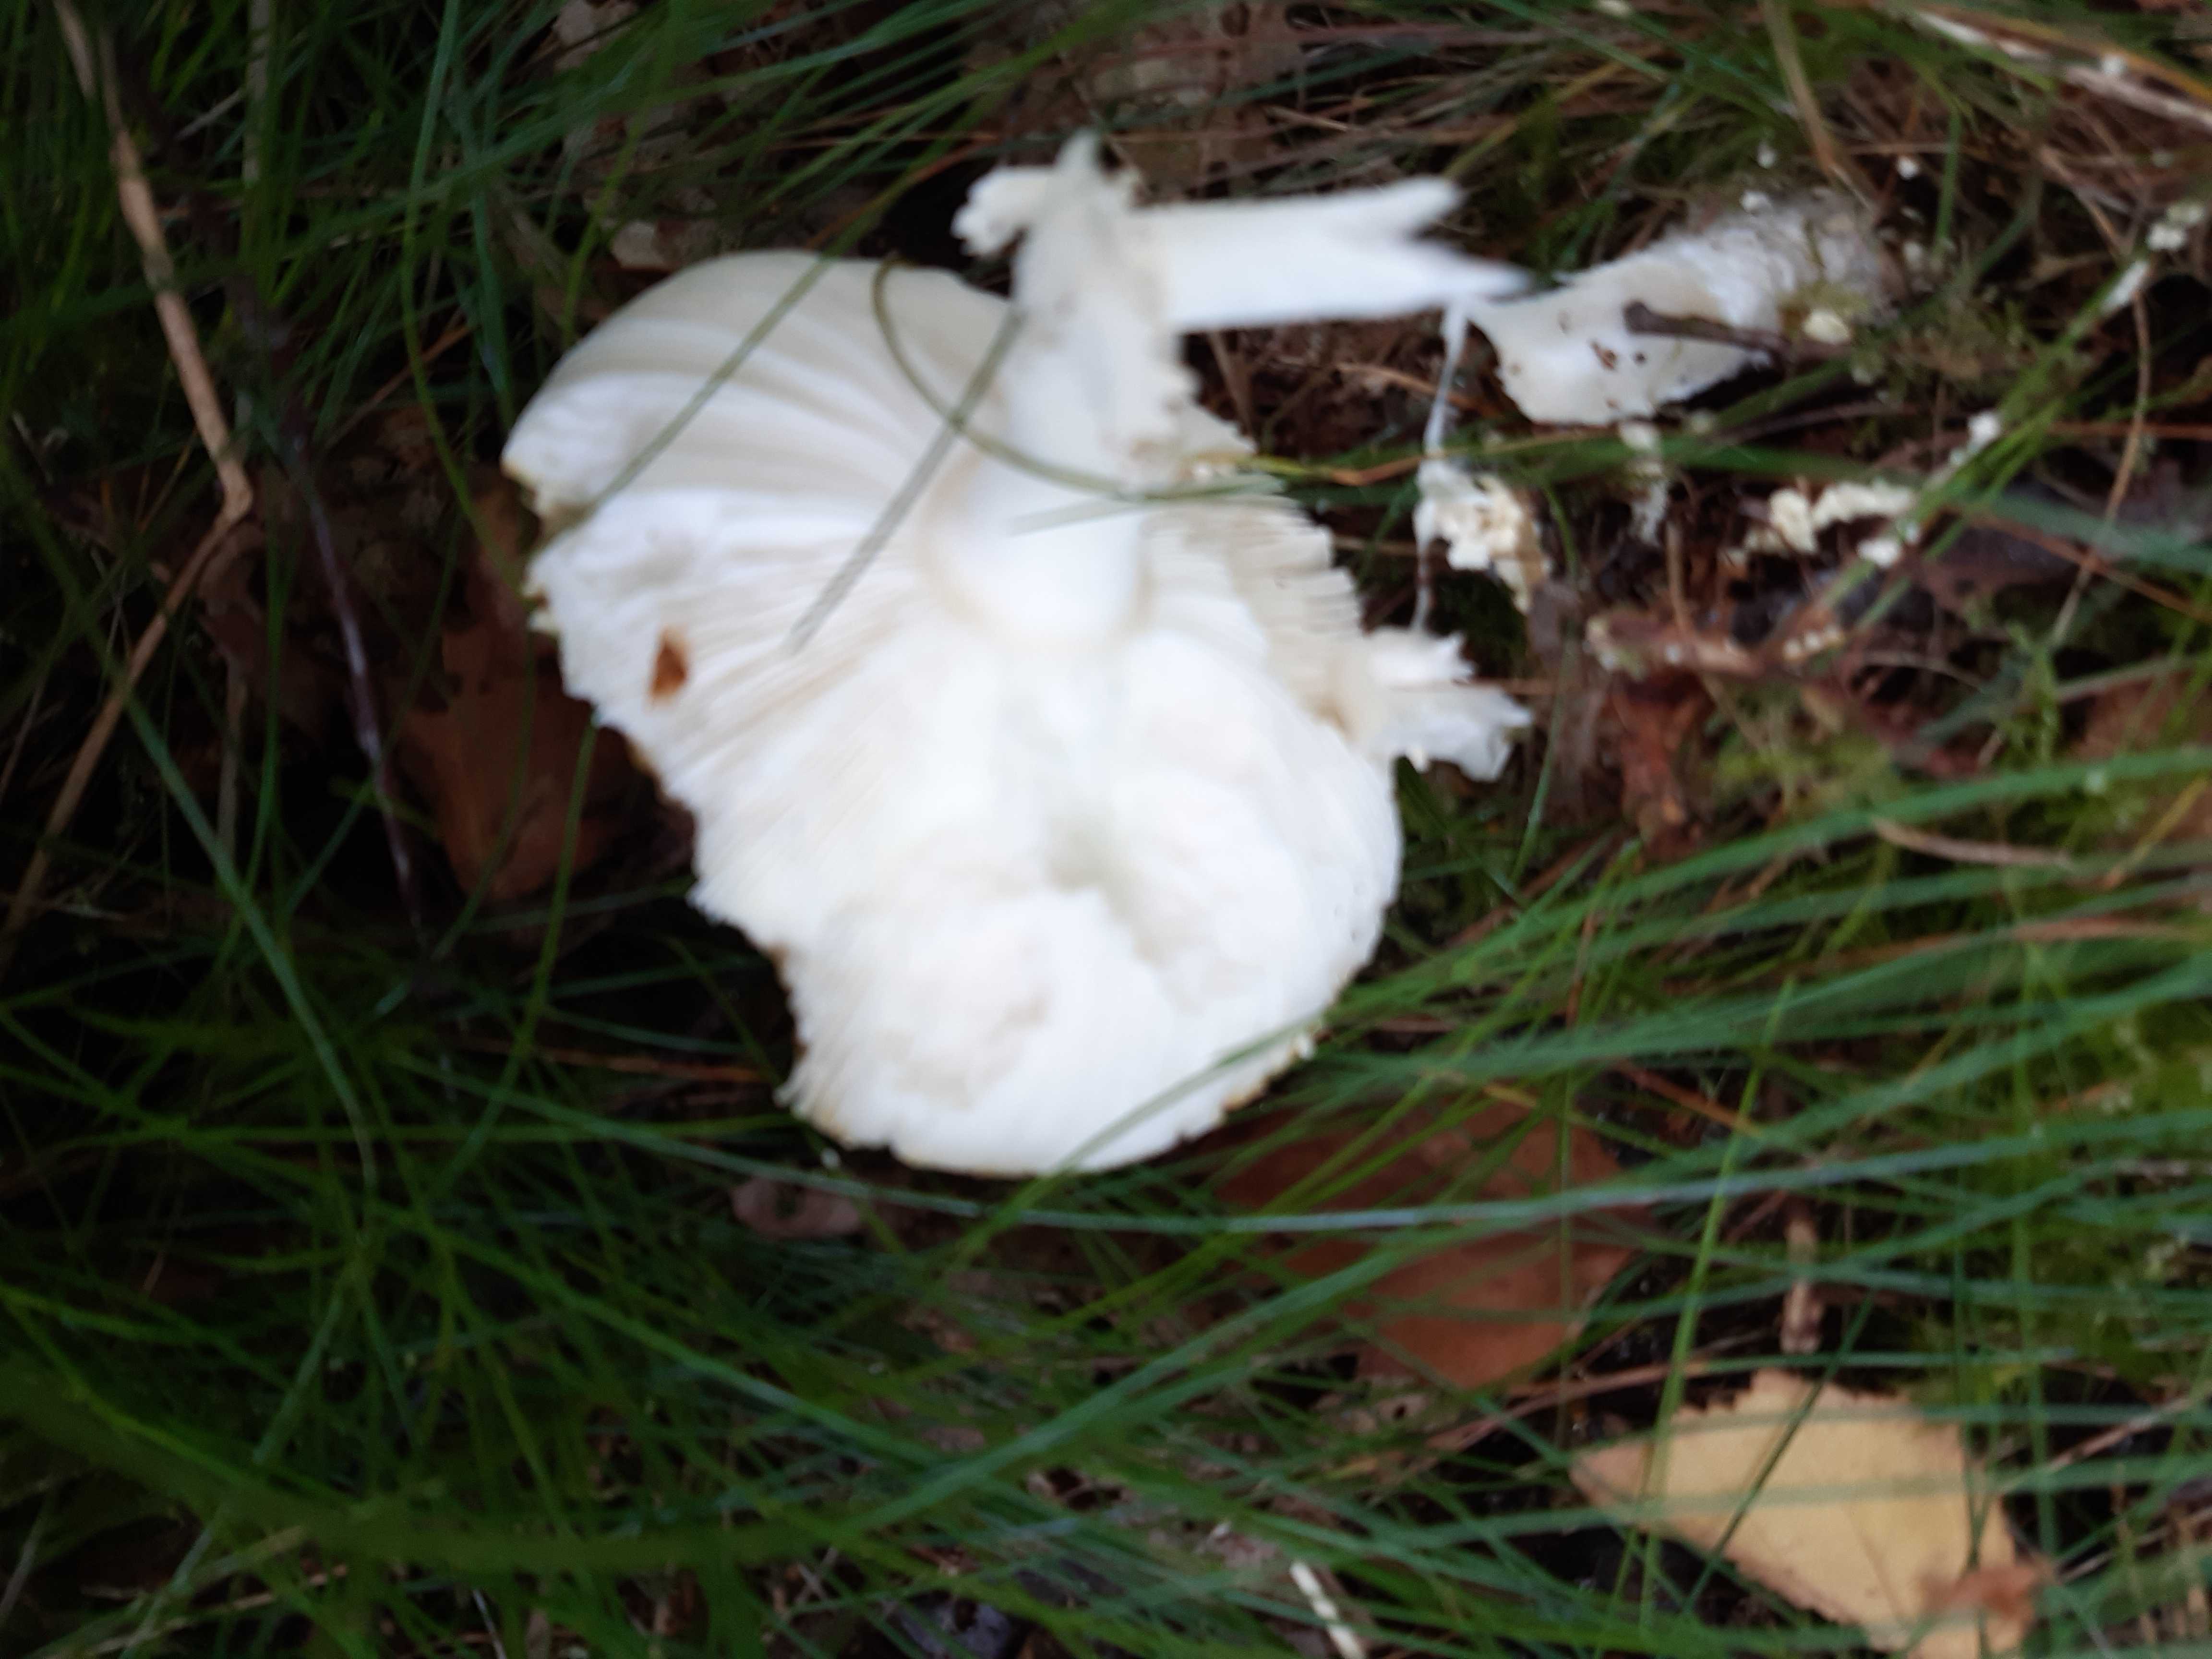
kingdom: Fungi
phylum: Basidiomycota
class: Agaricomycetes
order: Agaricales
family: Amanitaceae
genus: Amanita
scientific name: Amanita muscaria
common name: rød fluesvamp
